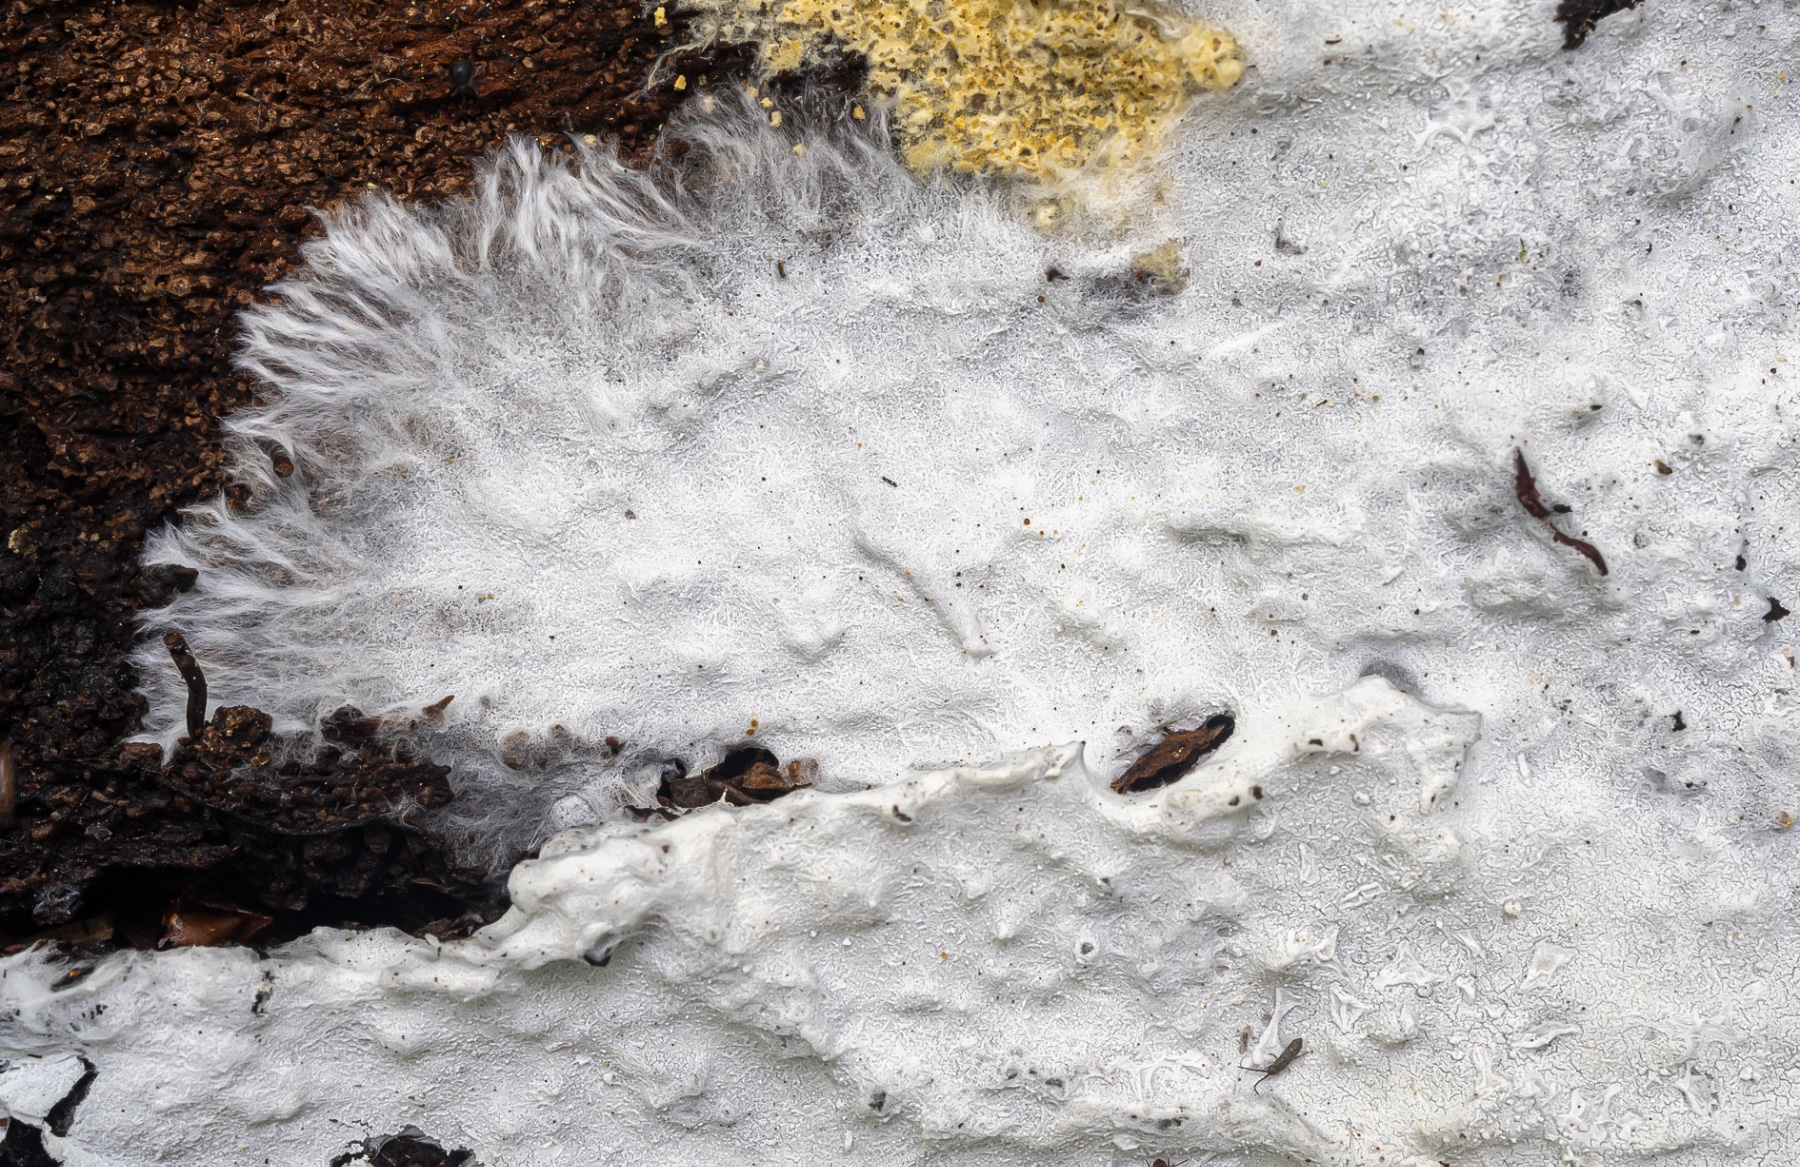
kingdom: Fungi
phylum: Basidiomycota
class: Agaricomycetes
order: Corticiales
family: Corticiaceae
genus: Corticium
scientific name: Corticium confine
